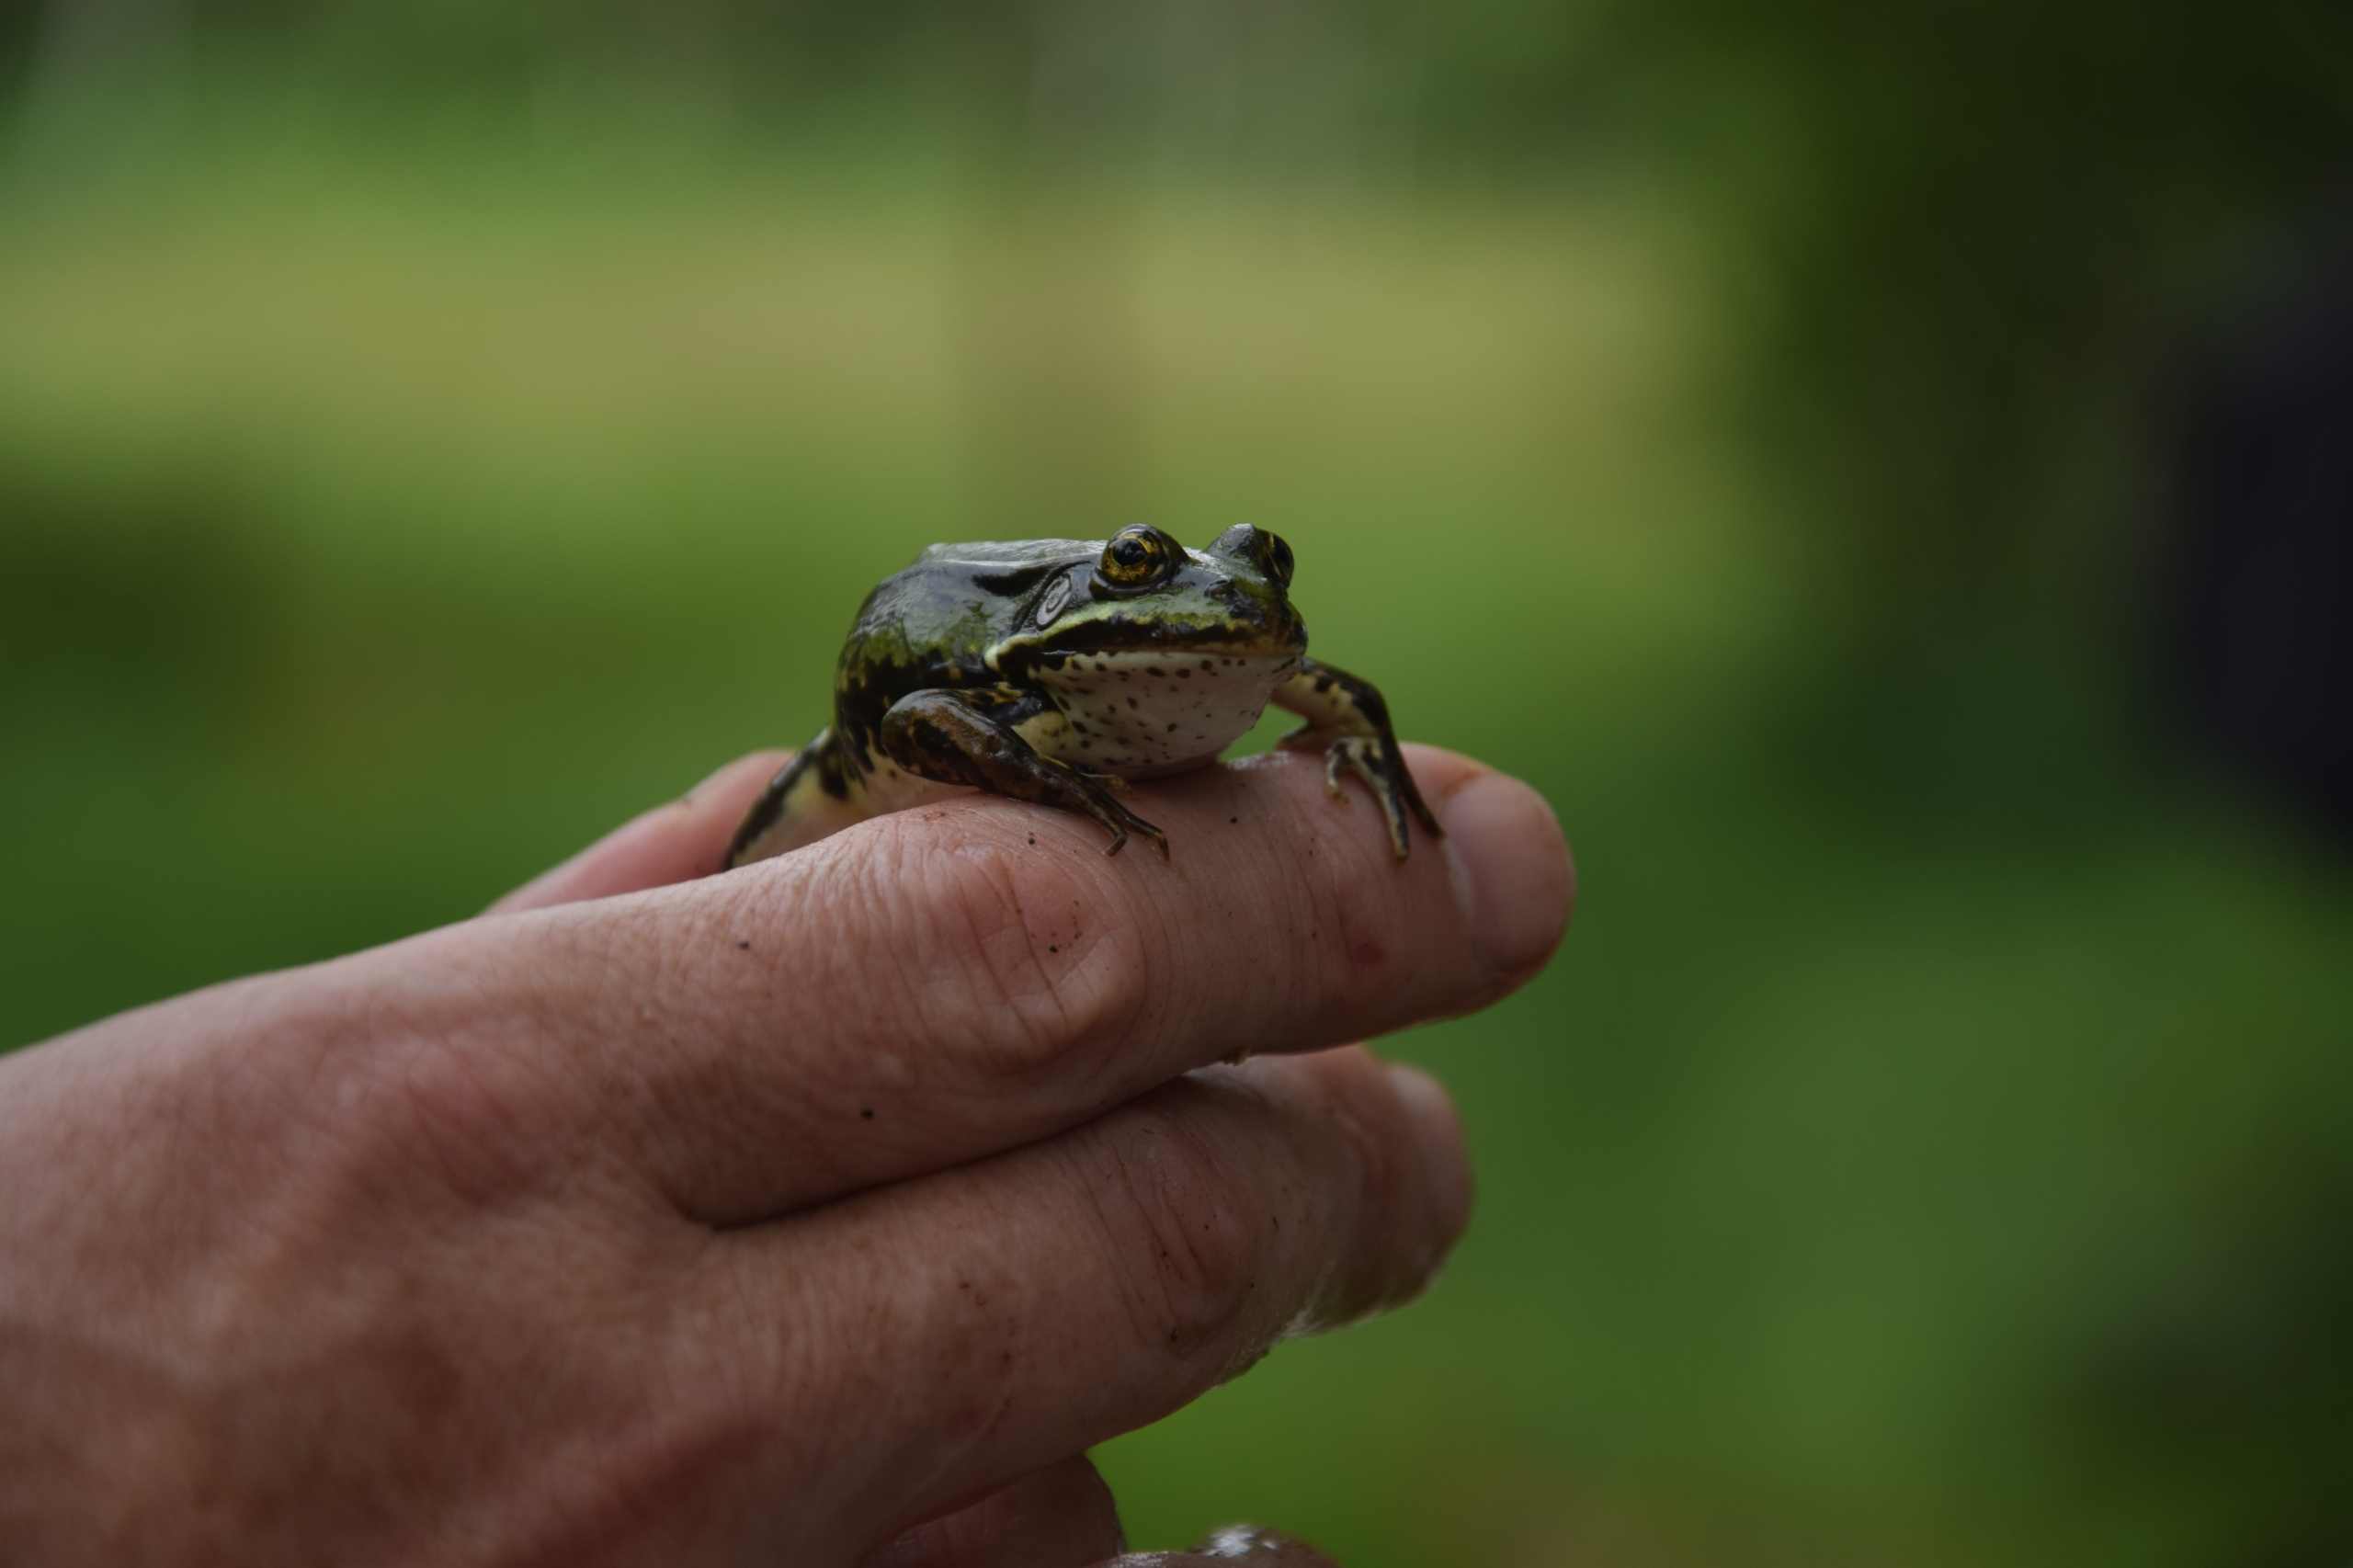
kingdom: Animalia
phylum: Chordata
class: Amphibia
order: Anura
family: Ranidae
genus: Pelophylax
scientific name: Pelophylax lessonae
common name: Grøn frø
